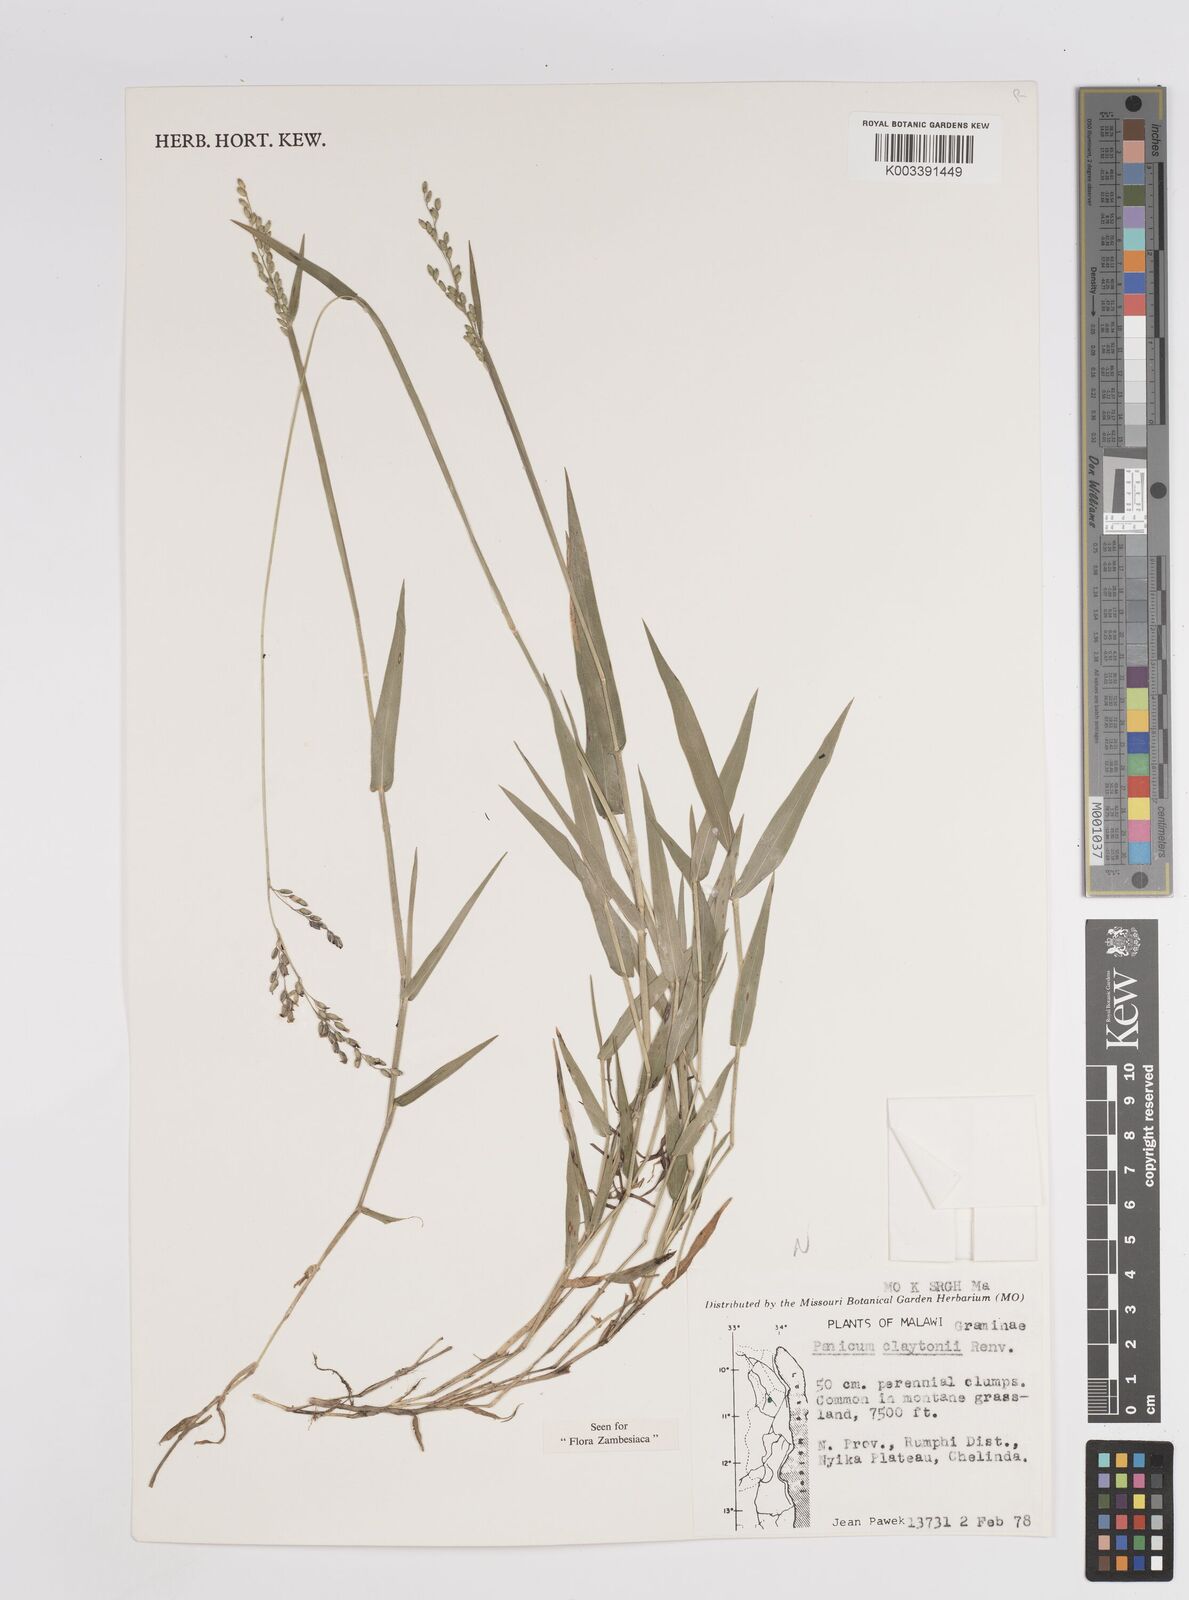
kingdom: Plantae
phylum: Tracheophyta
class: Liliopsida
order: Poales
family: Poaceae
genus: Adenochloa
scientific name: Adenochloa claytonii
